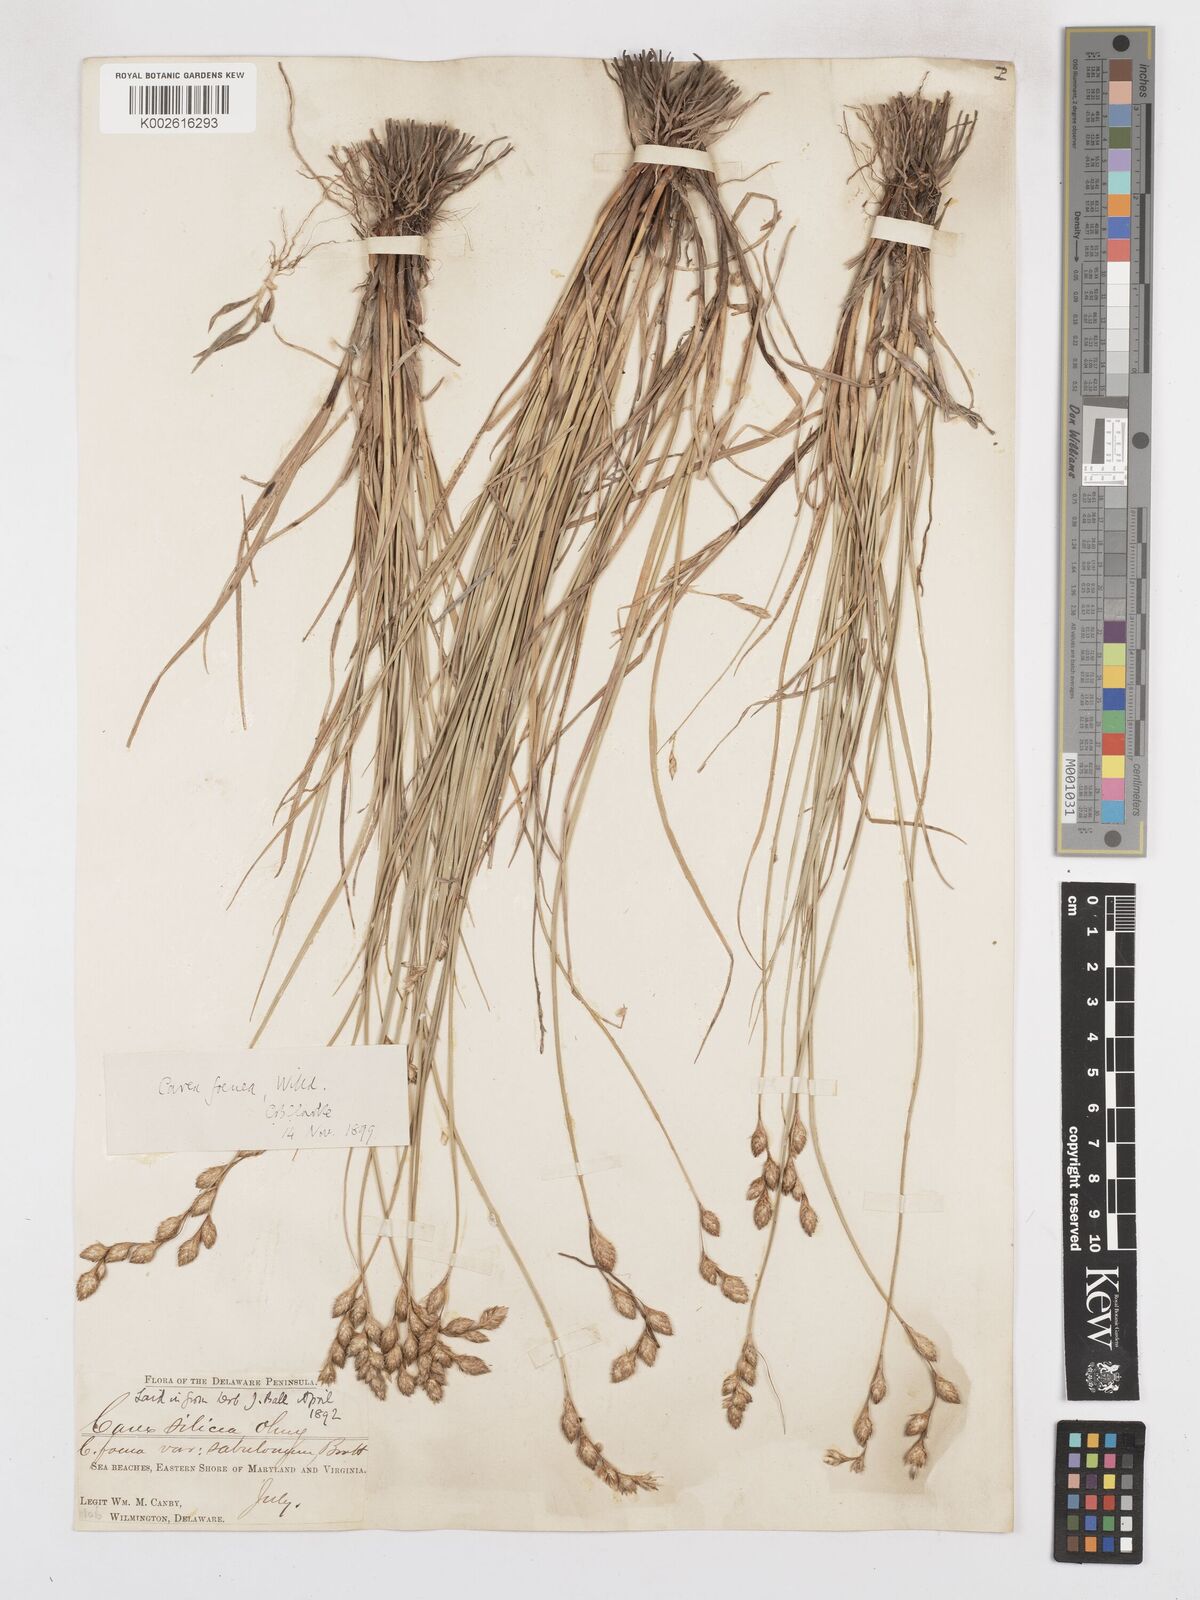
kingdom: Plantae
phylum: Tracheophyta
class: Liliopsida
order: Poales
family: Cyperaceae
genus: Carex
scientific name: Carex silicea
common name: Beach sedge
